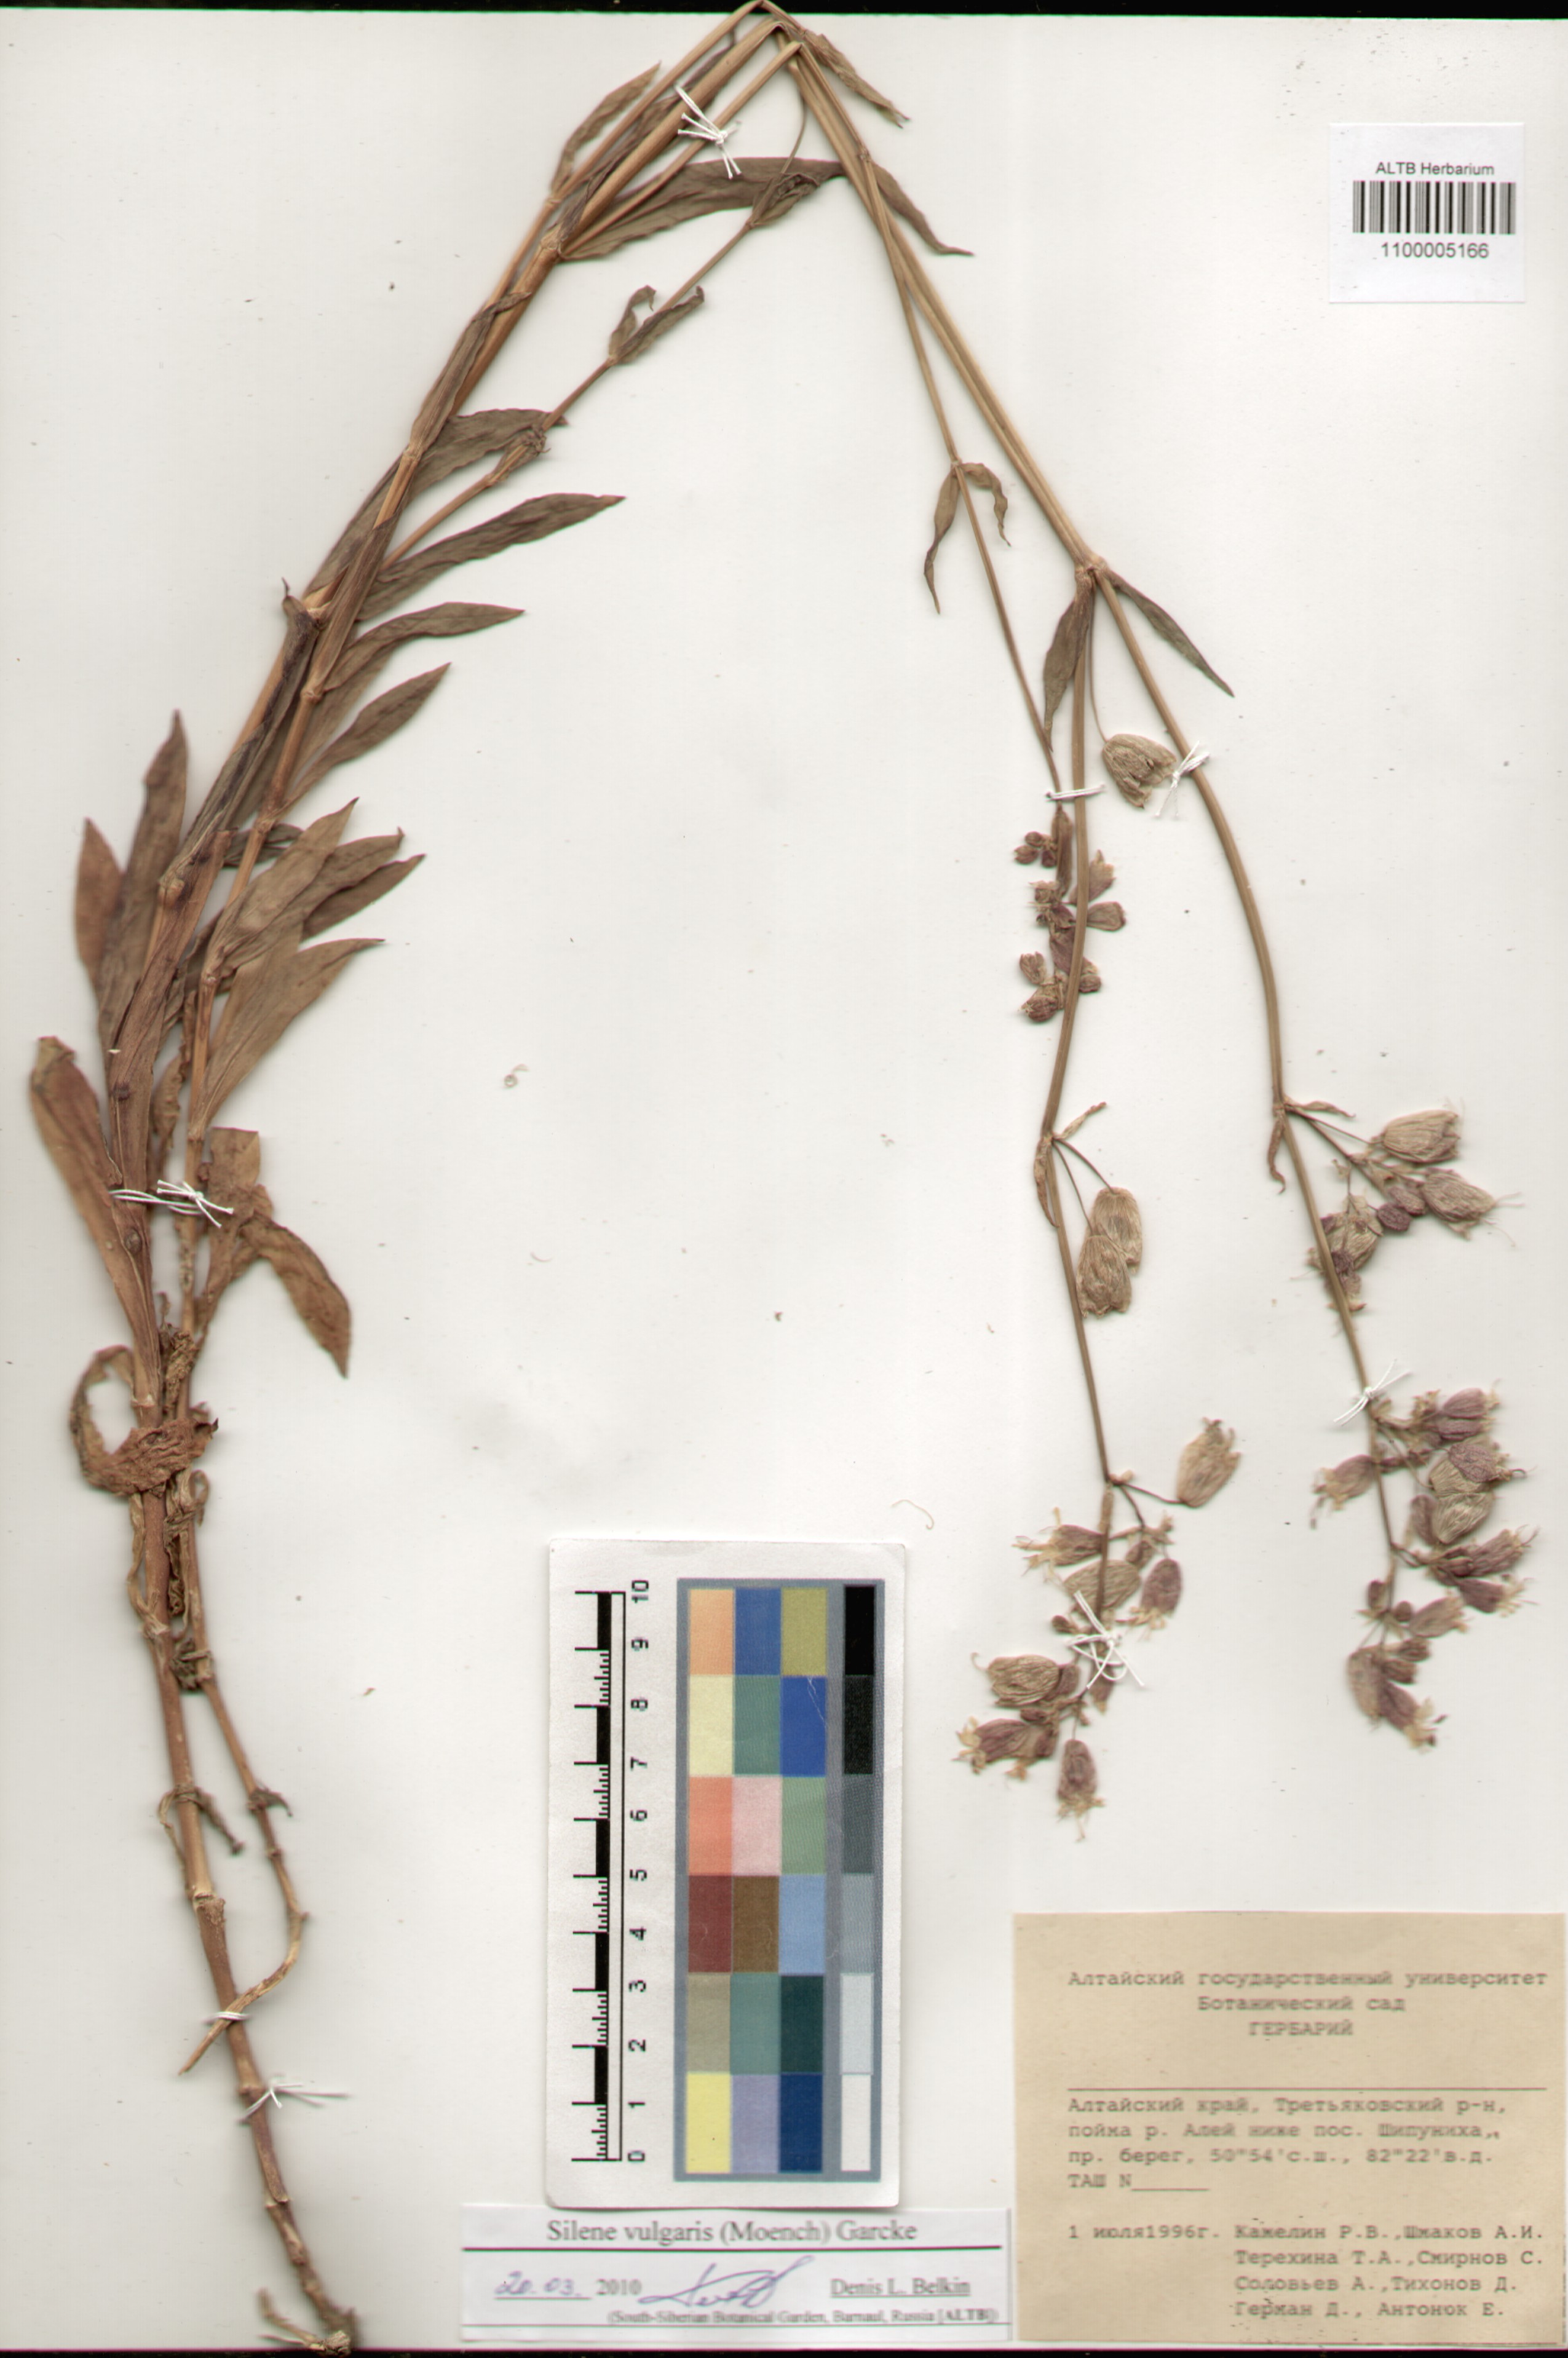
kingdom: Plantae
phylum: Tracheophyta
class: Magnoliopsida
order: Caryophyllales
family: Caryophyllaceae
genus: Silene
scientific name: Silene vulgaris
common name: Bladder campion
